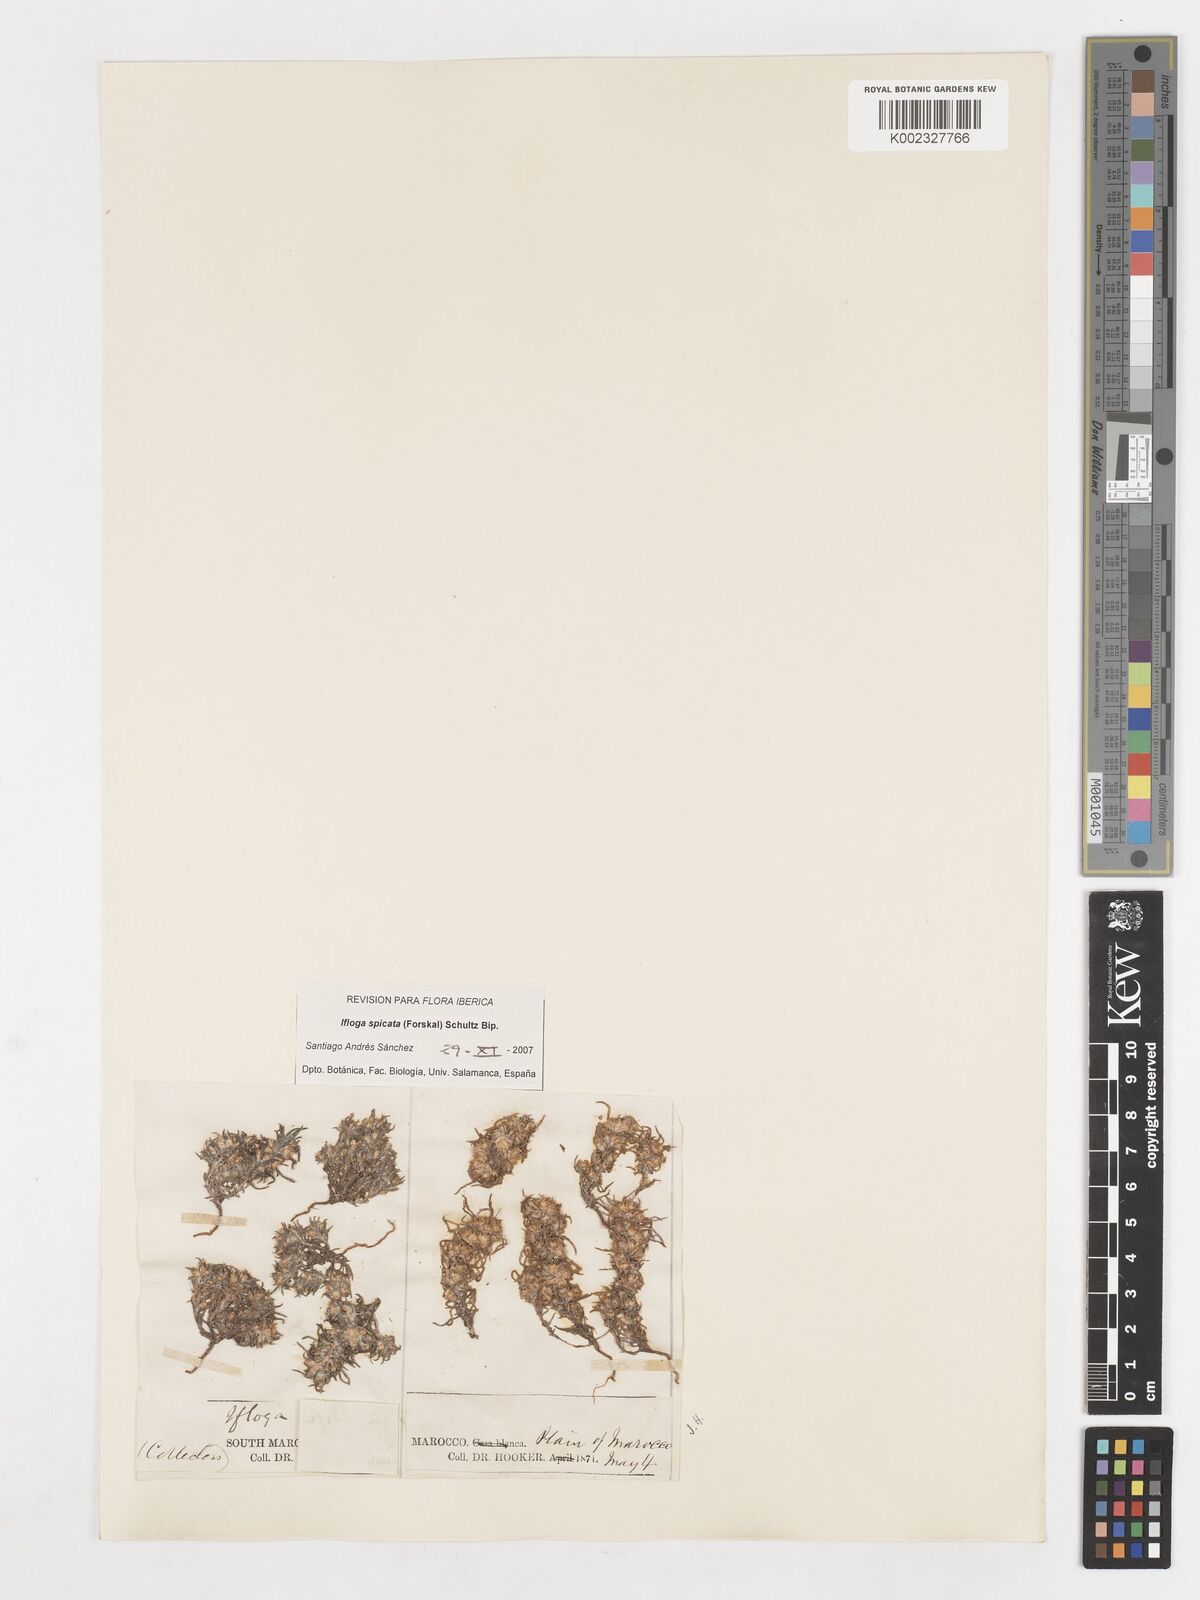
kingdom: Plantae
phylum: Tracheophyta
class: Magnoliopsida
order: Asterales
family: Asteraceae
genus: Ifloga
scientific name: Ifloga spicata
